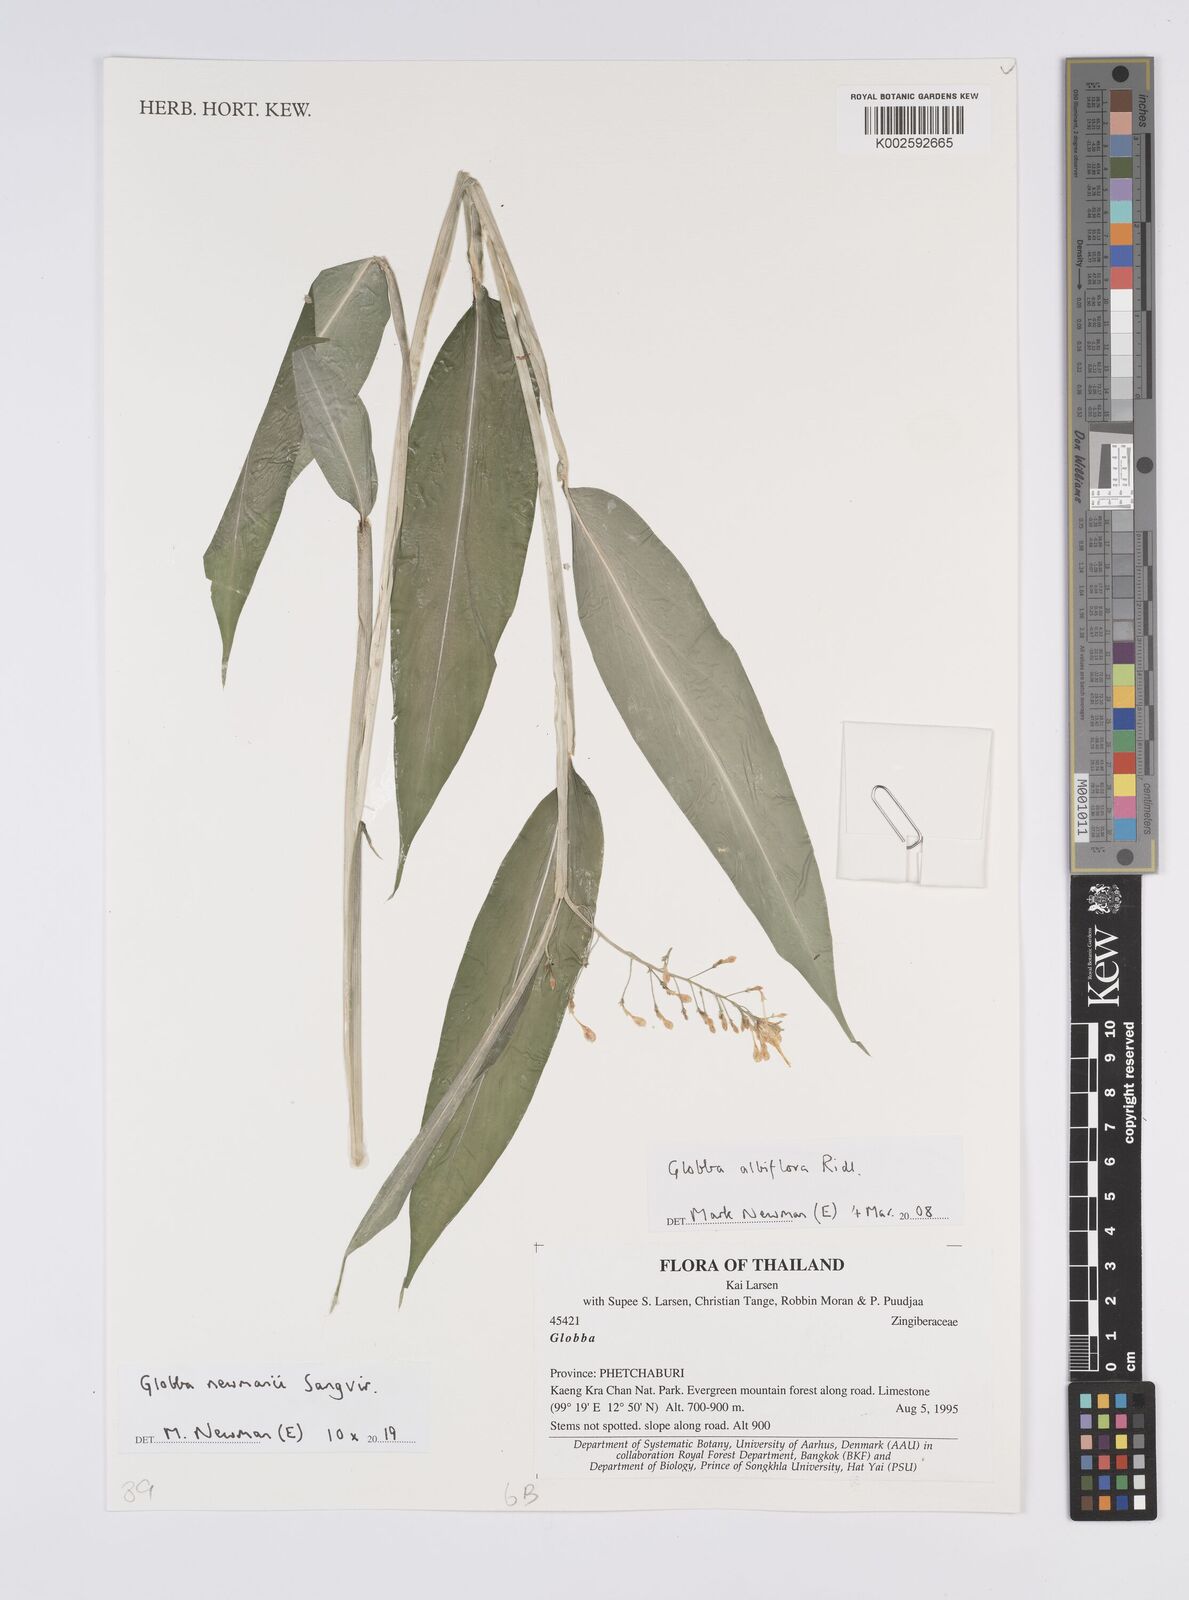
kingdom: Plantae
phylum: Tracheophyta
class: Liliopsida
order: Zingiberales
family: Zingiberaceae
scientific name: Zingiberaceae
